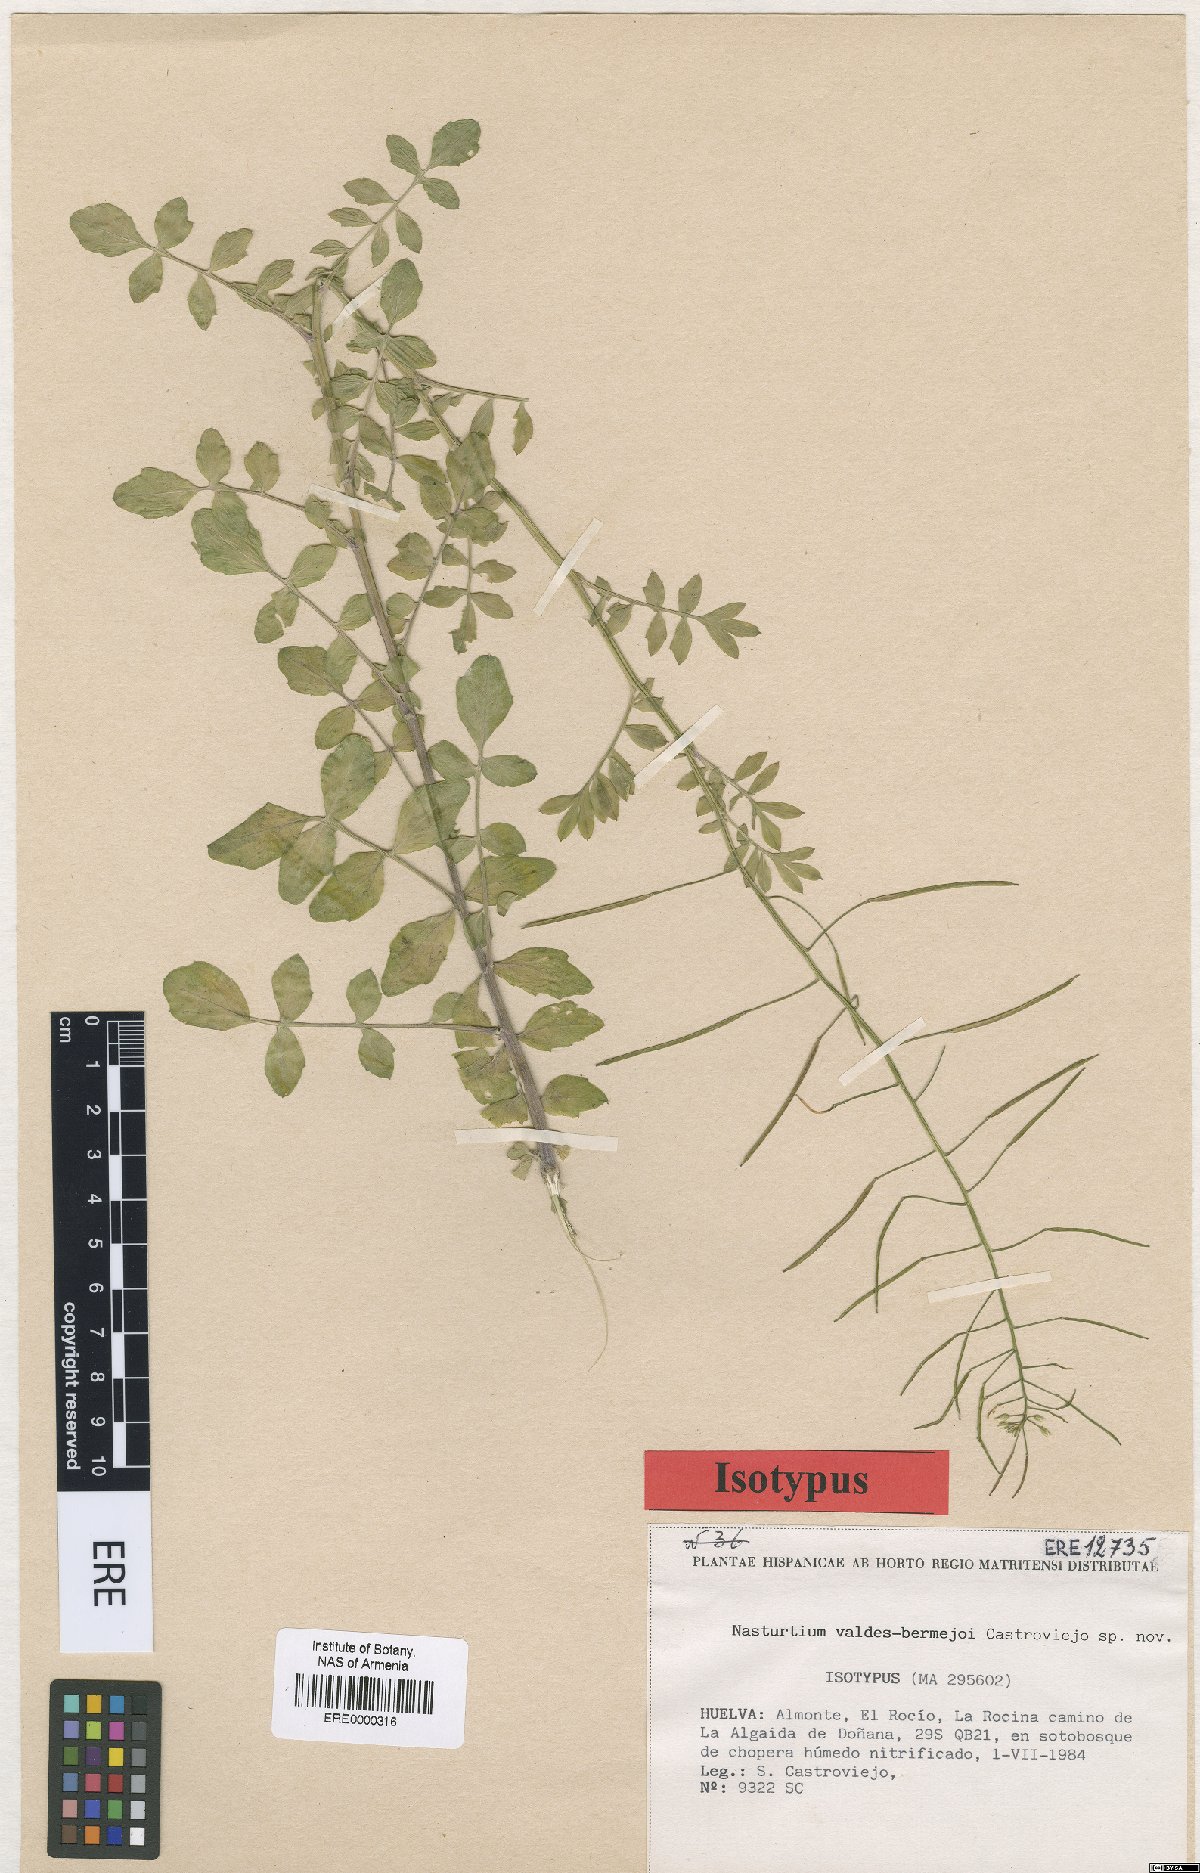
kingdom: Plantae
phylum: Tracheophyta
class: Magnoliopsida
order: Brassicales
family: Brassicaceae
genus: Rorippa
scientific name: Rorippa valdes-bermejoi
